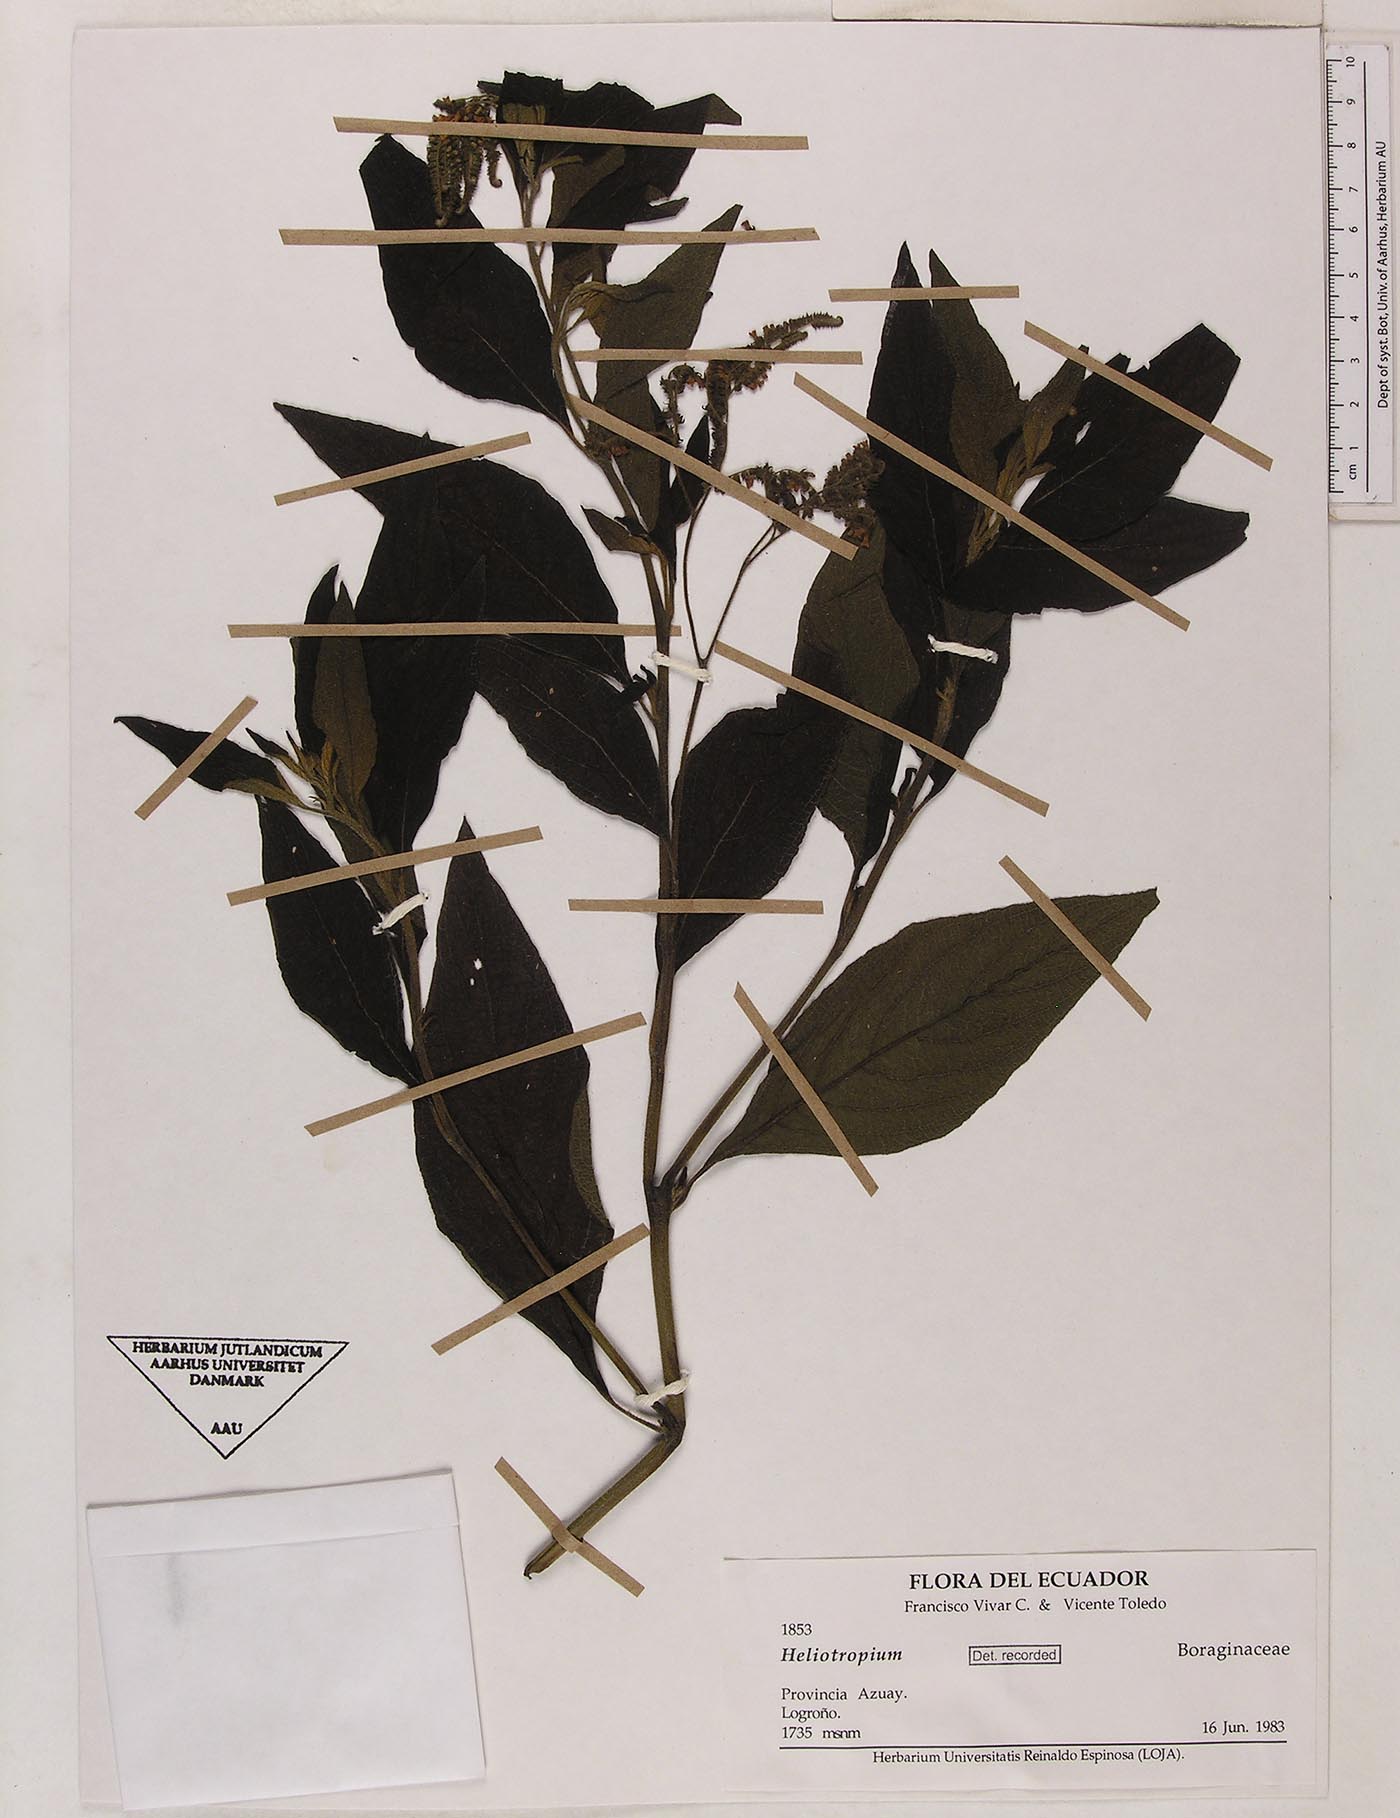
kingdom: Plantae
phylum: Tracheophyta
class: Magnoliopsida
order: Boraginales
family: Heliotropiaceae
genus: Heliotropium
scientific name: Heliotropium rufipilum
